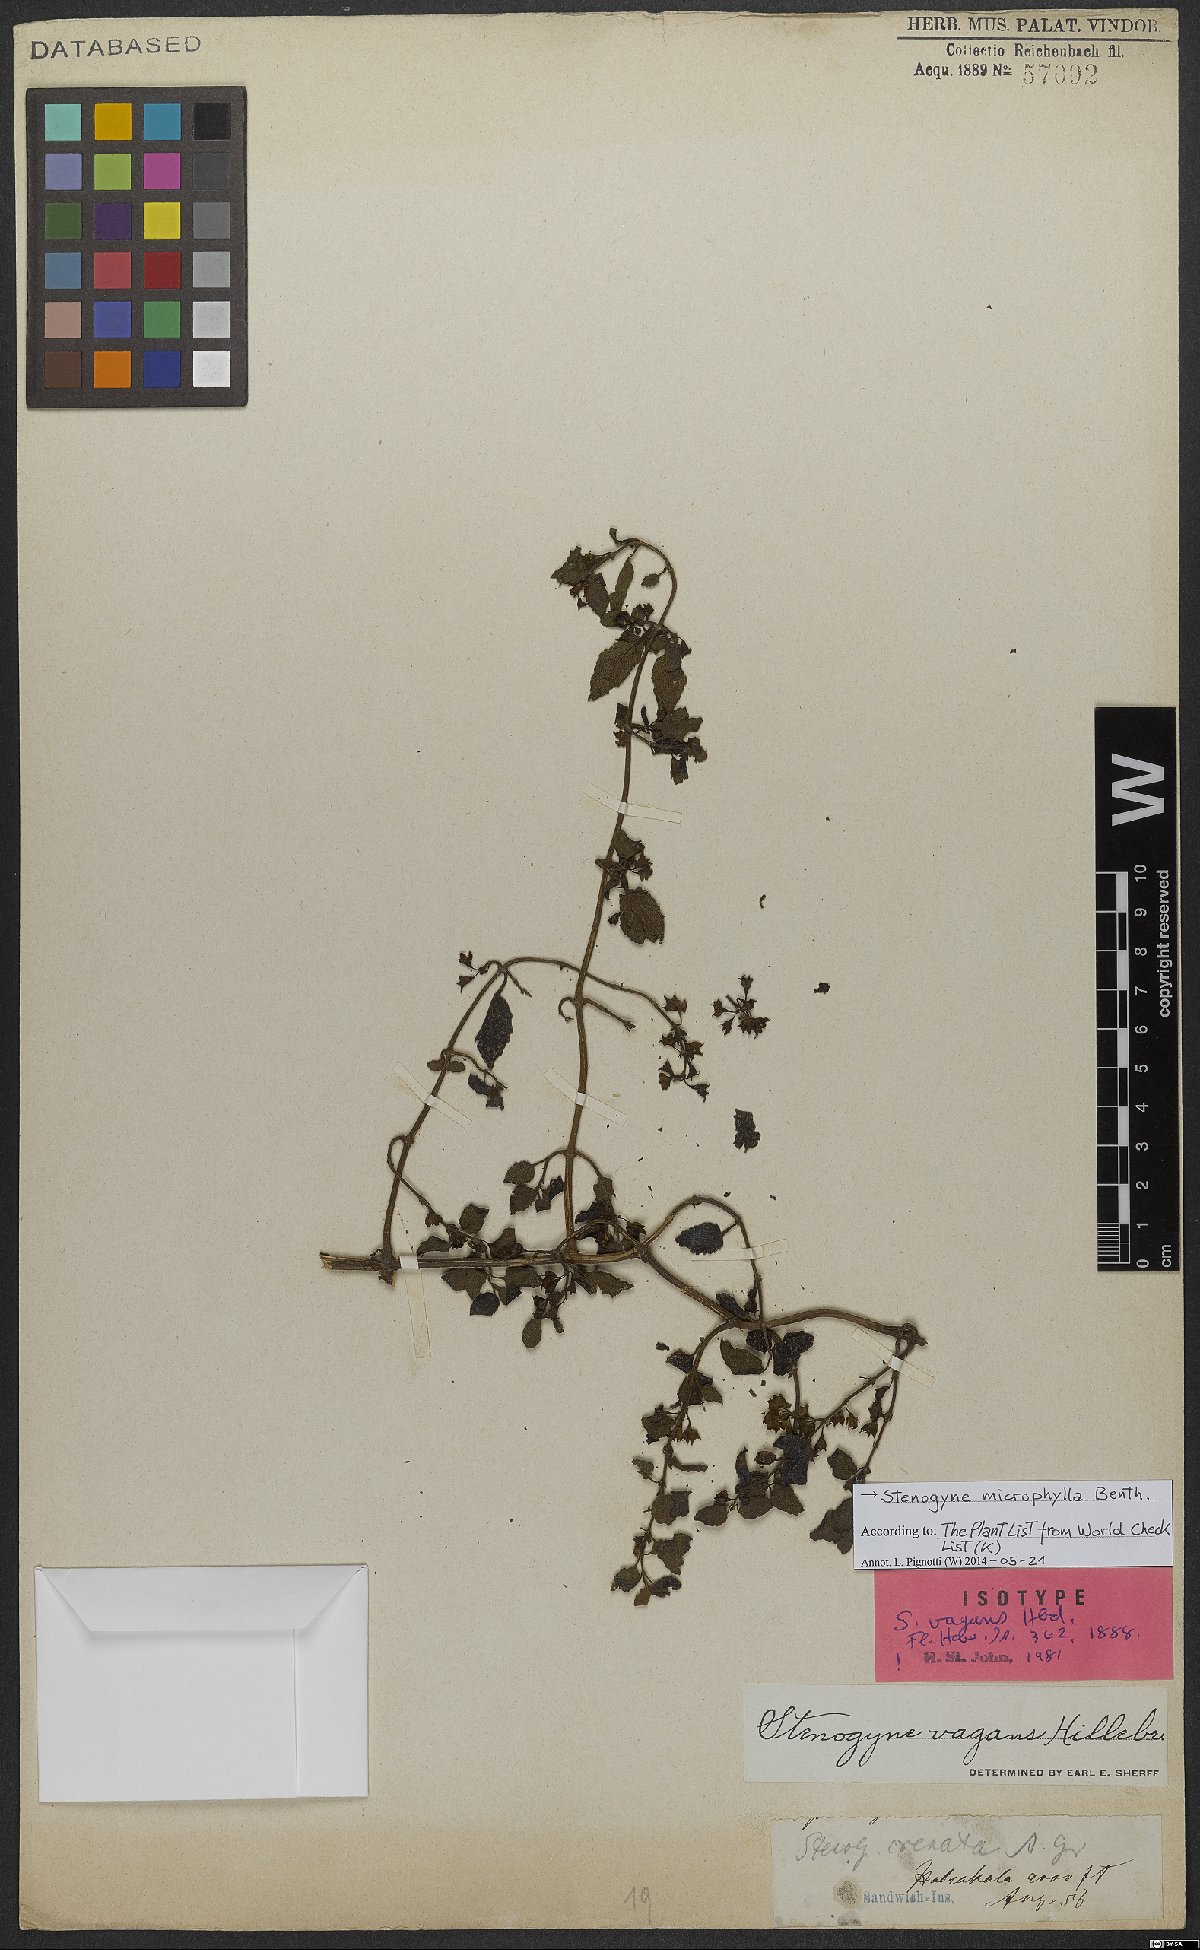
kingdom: Plantae
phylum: Tracheophyta
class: Magnoliopsida
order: Lamiales
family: Lamiaceae
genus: Stenogyne
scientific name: Stenogyne microphylla
